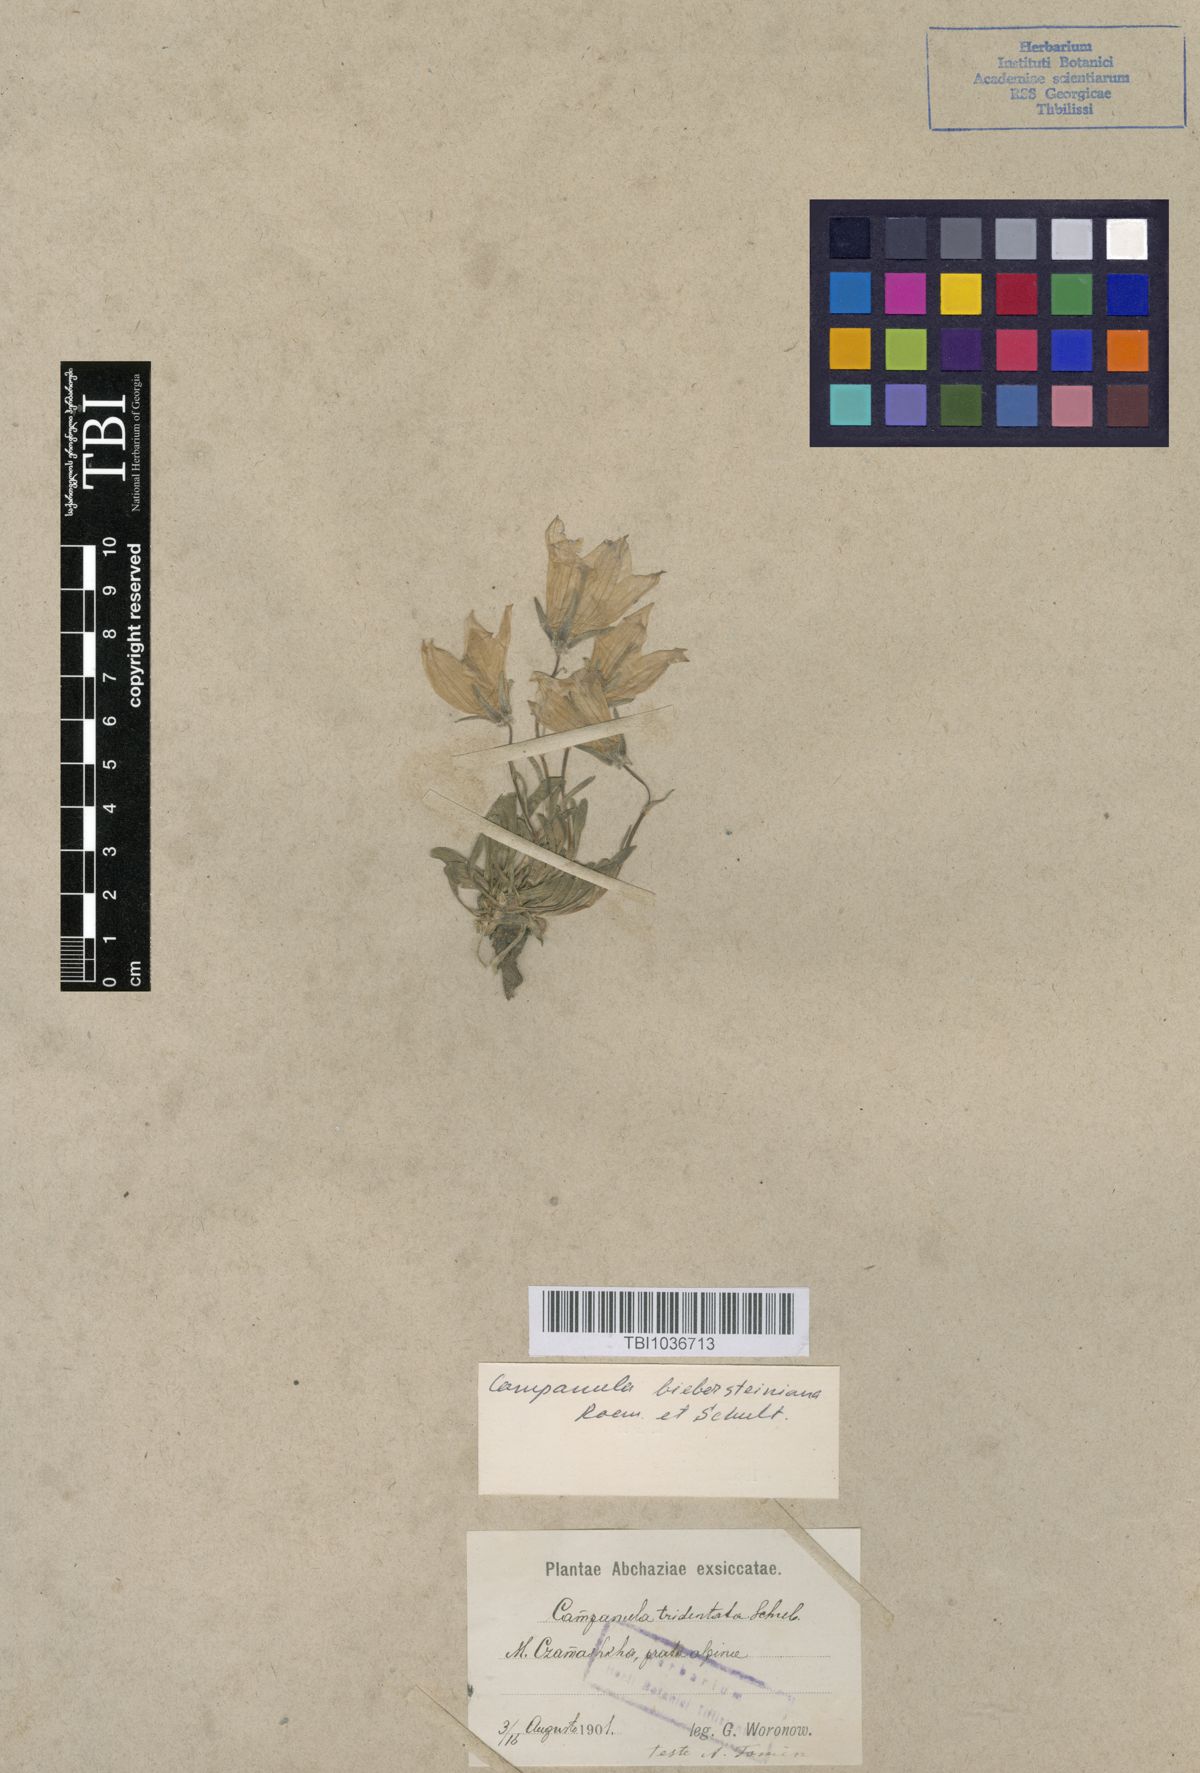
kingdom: Plantae
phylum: Tracheophyta
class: Magnoliopsida
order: Asterales
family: Campanulaceae
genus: Campanula
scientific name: Campanula tridentata
